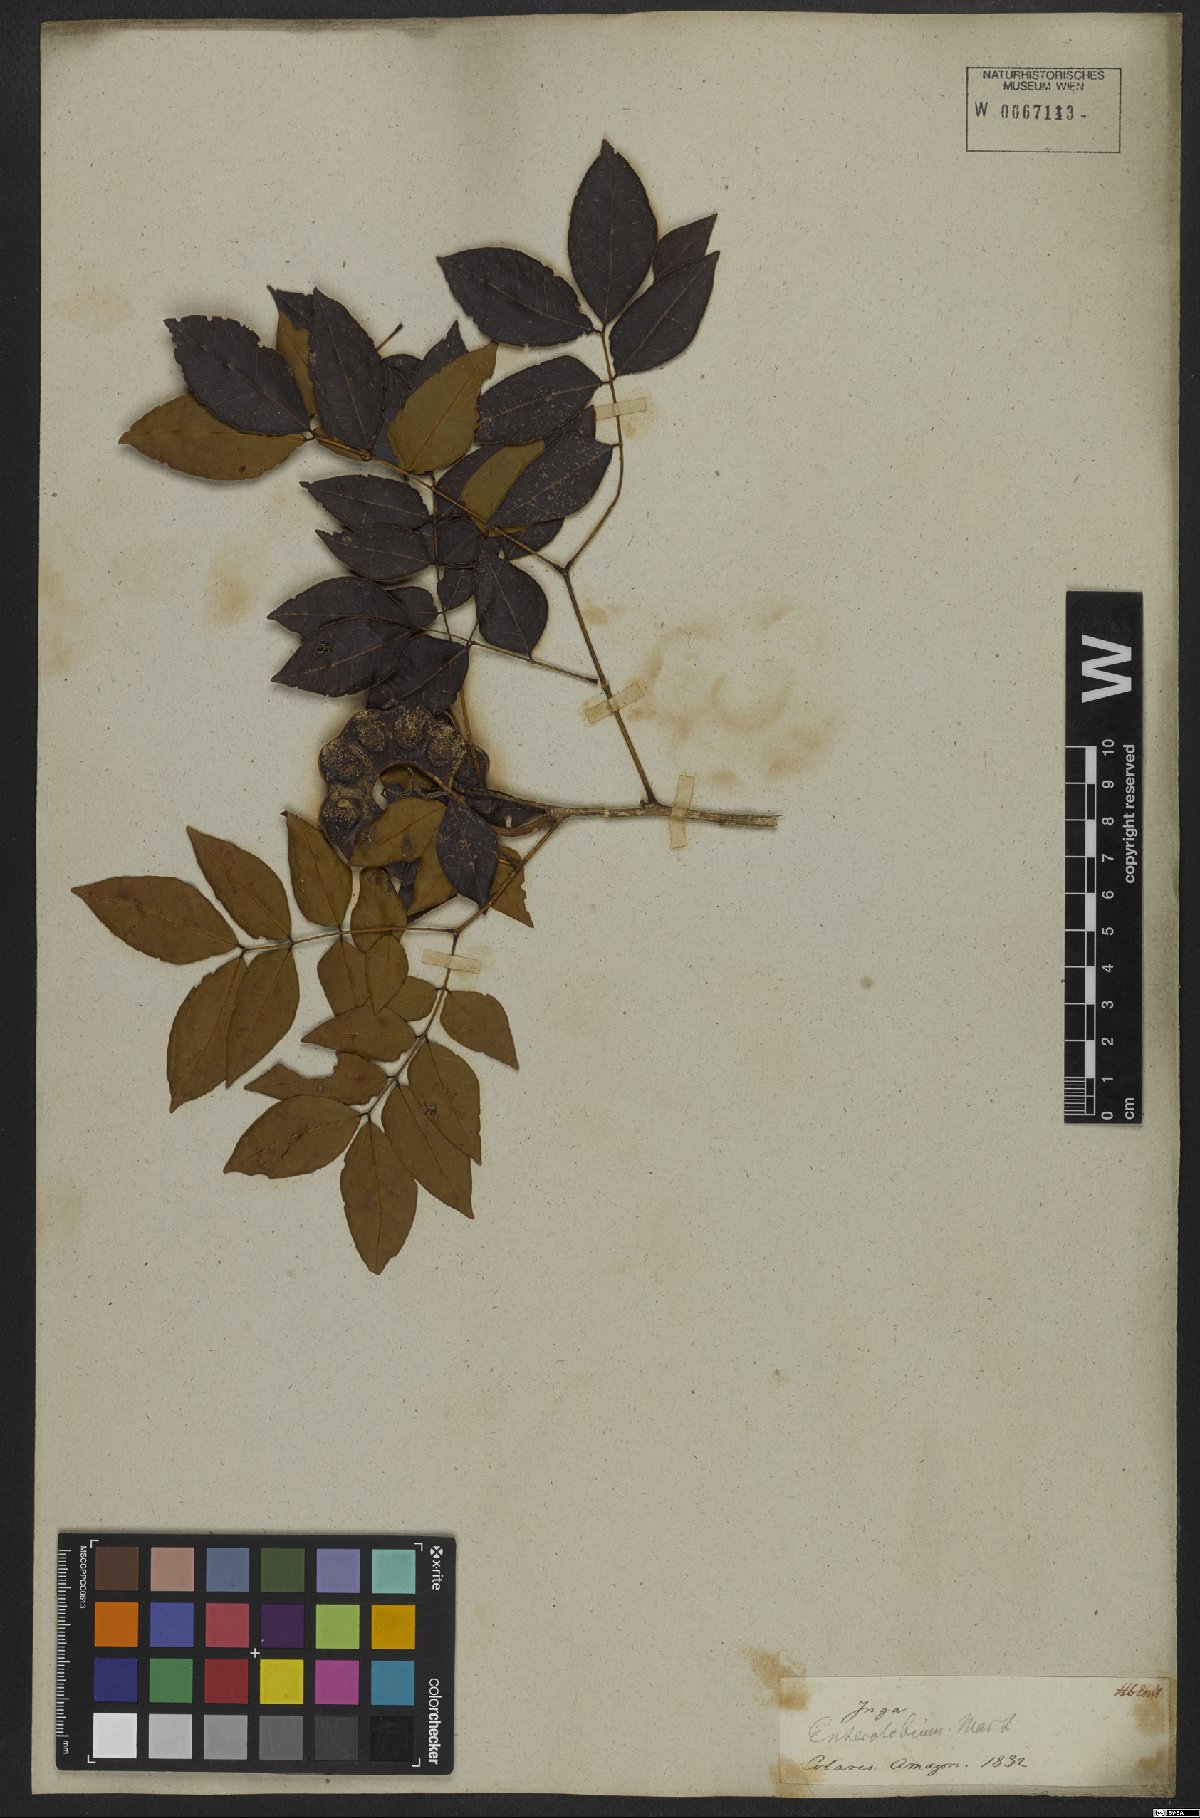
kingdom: Plantae
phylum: Tracheophyta
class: Magnoliopsida
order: Fabales
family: Fabaceae
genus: Jupunba
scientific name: Jupunba cochleata
